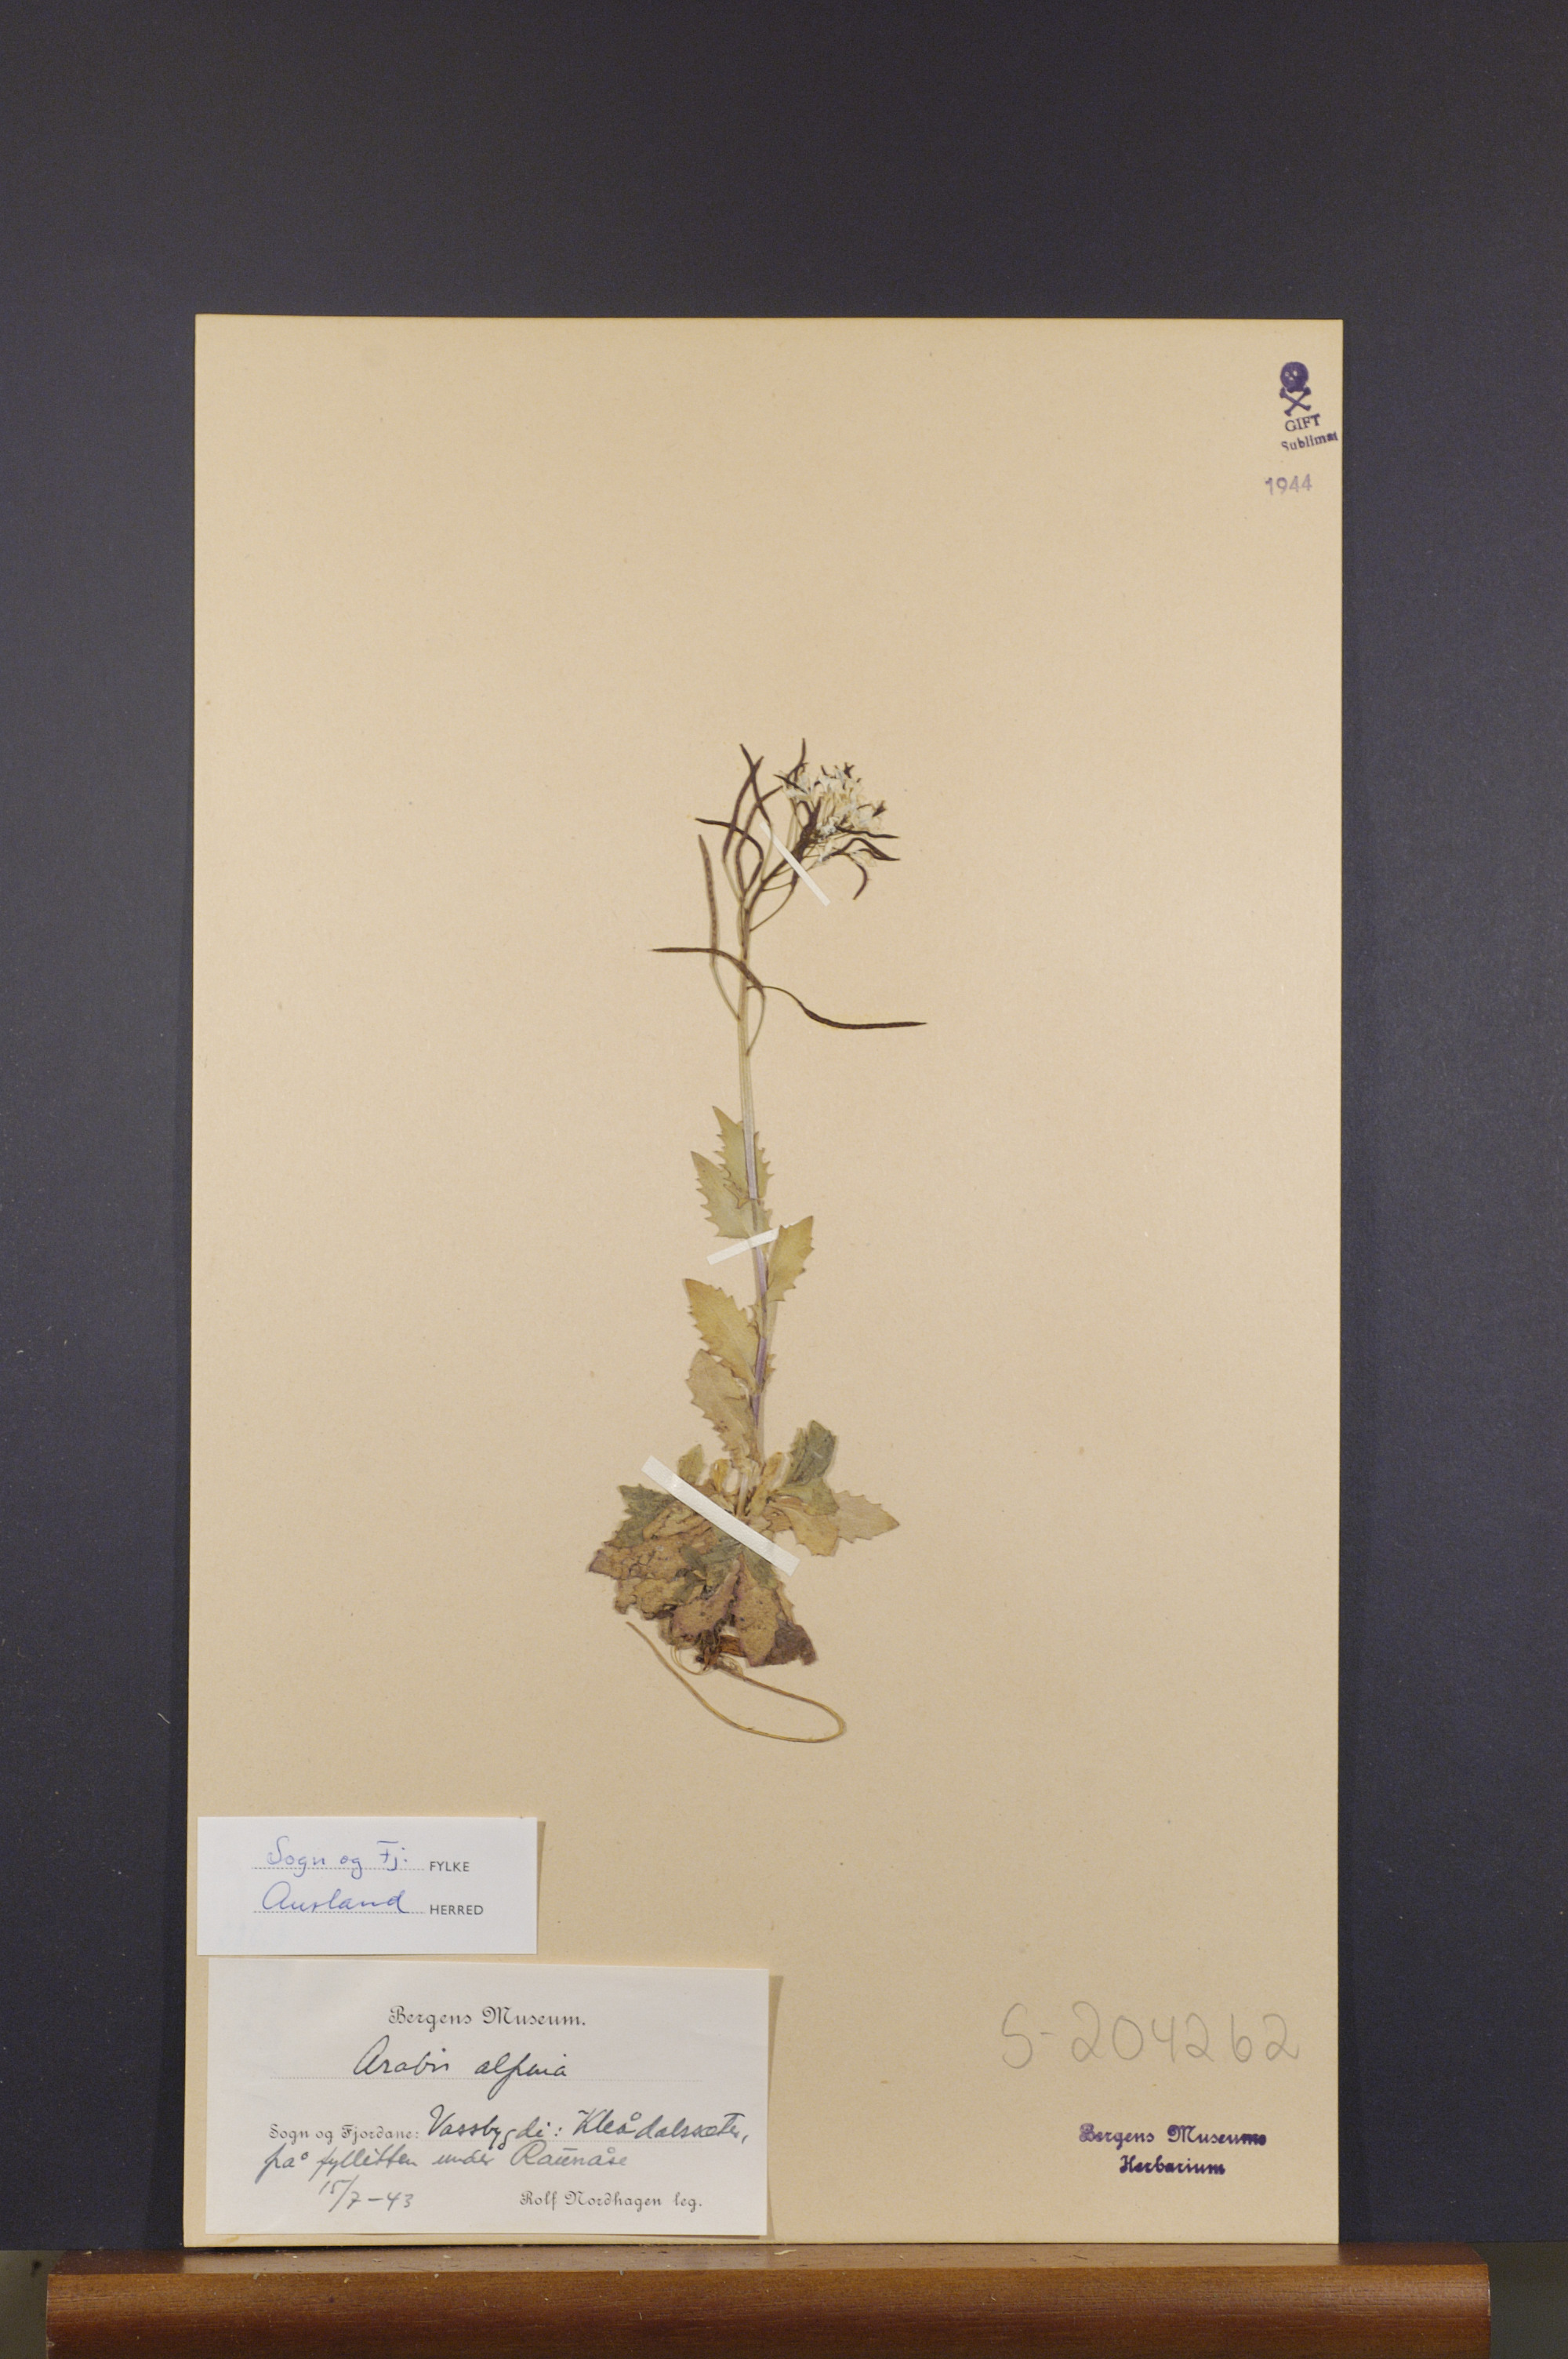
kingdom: Plantae
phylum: Tracheophyta
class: Magnoliopsida
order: Brassicales
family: Brassicaceae
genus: Arabis
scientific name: Arabis alpina
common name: Alpine rock-cress
